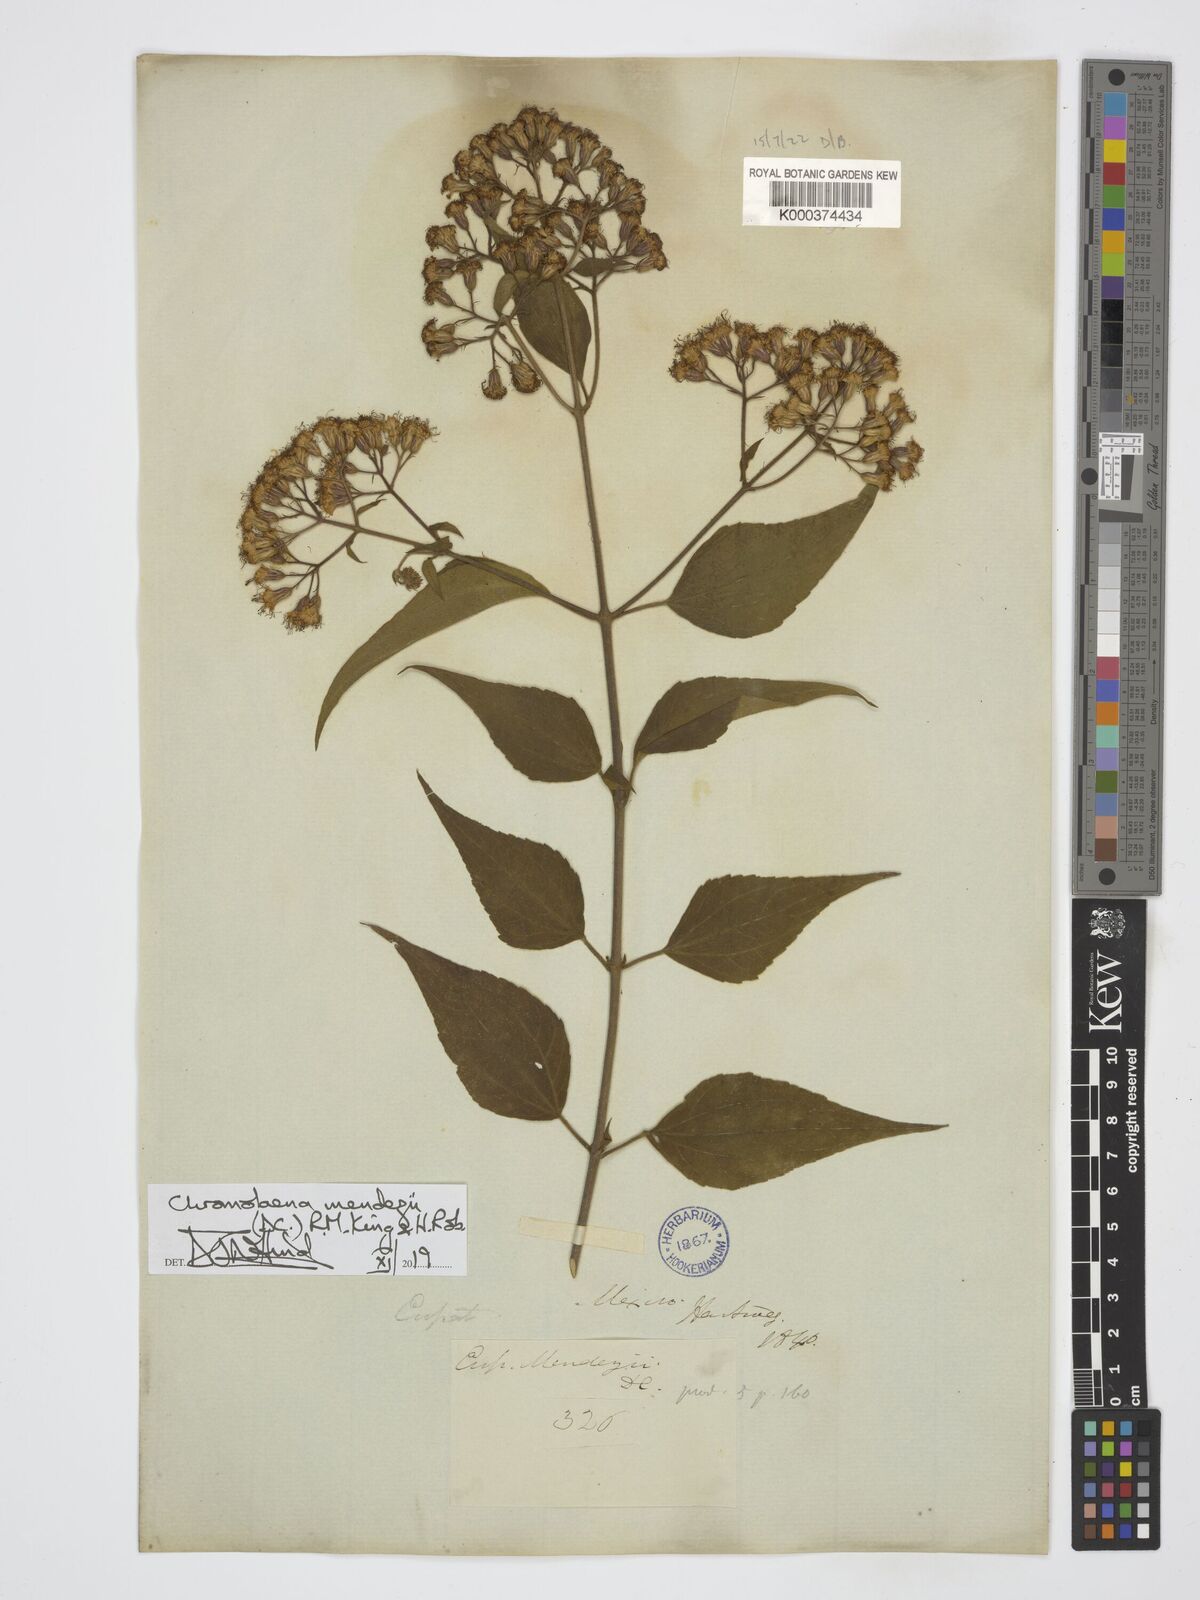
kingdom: Plantae
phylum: Tracheophyta
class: Magnoliopsida
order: Asterales
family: Asteraceae
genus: Chromolaena
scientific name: Chromolaena collina
